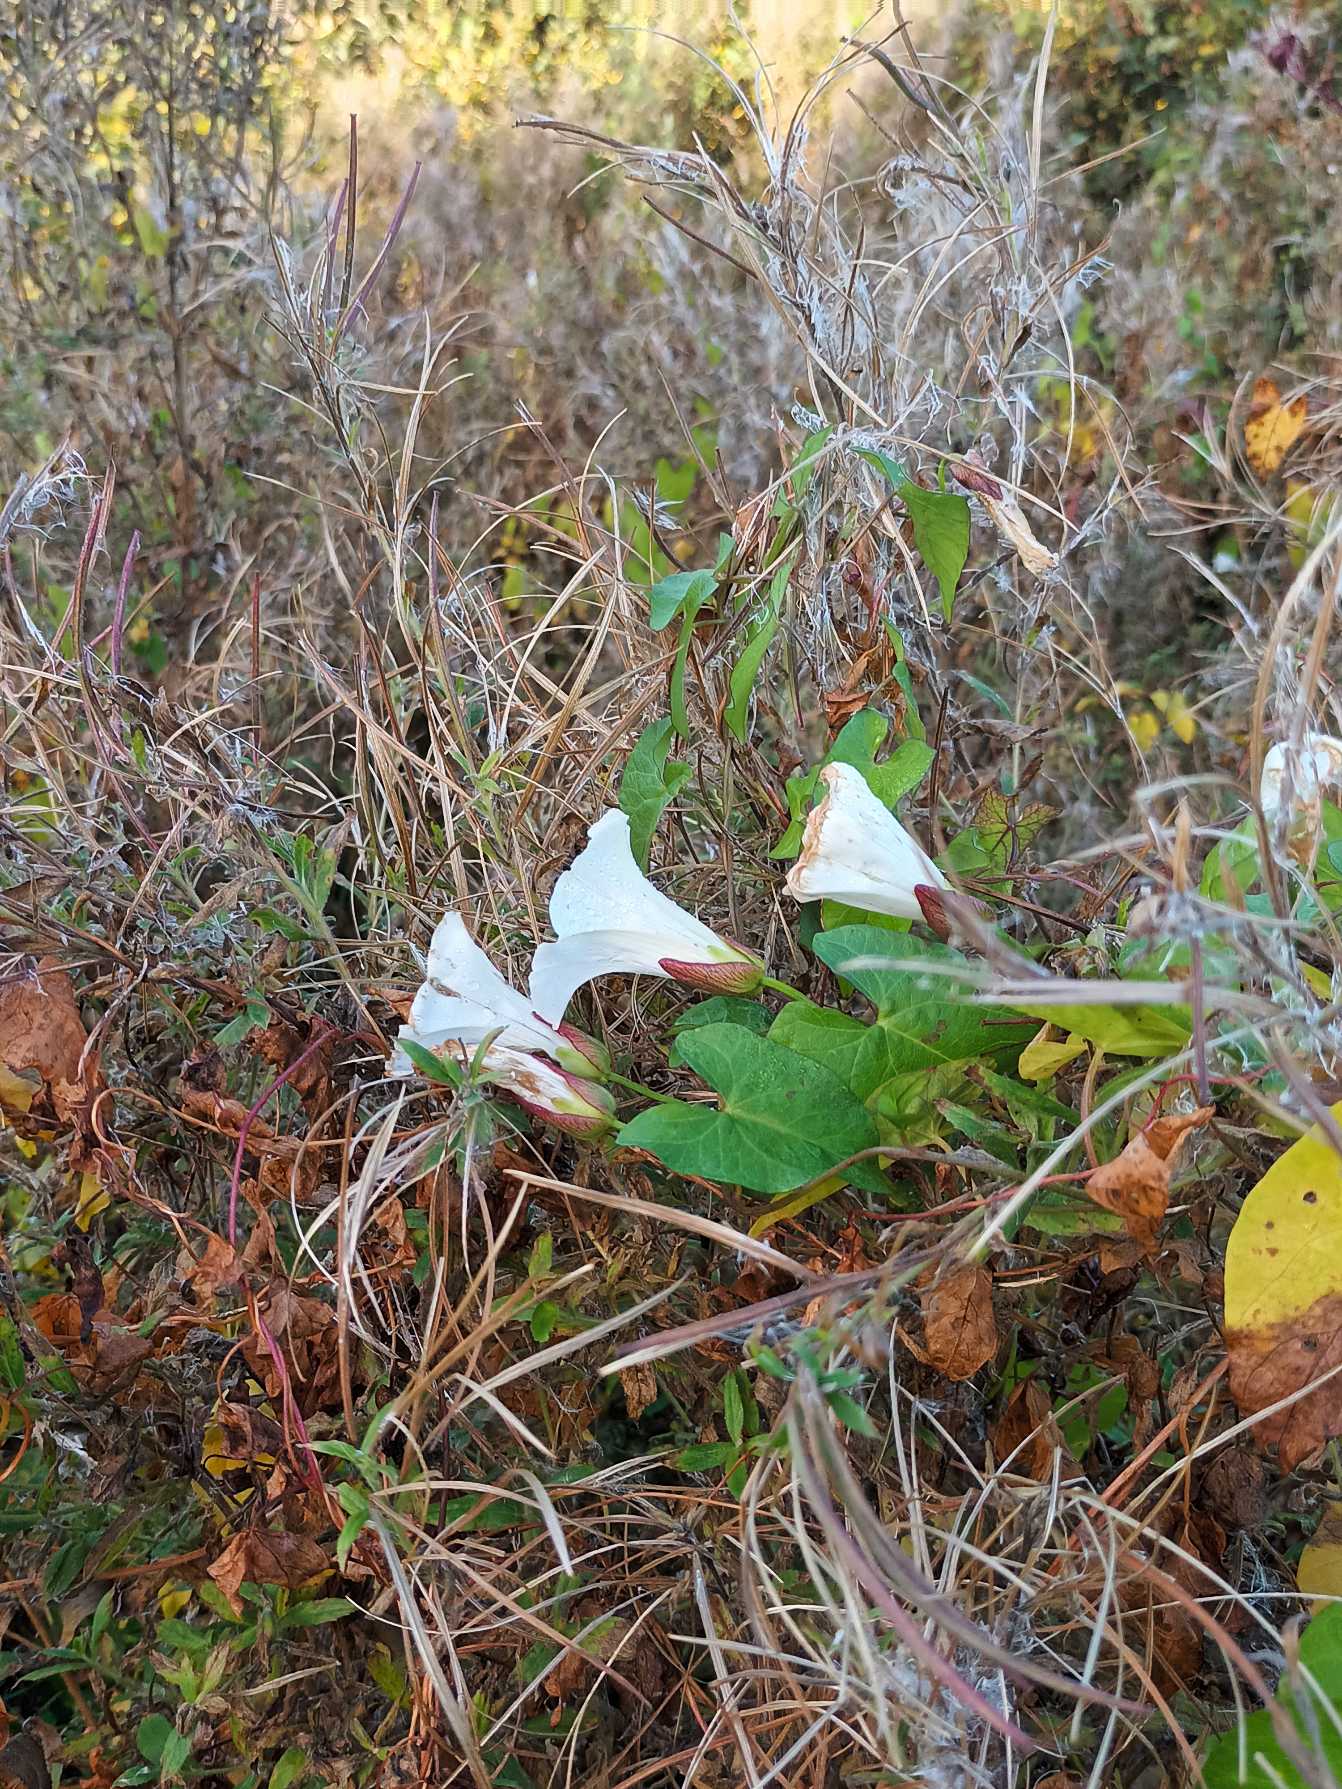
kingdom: Plantae
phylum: Tracheophyta
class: Magnoliopsida
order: Solanales
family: Convolvulaceae
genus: Calystegia
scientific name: Calystegia sepium
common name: Gærde-snerle
